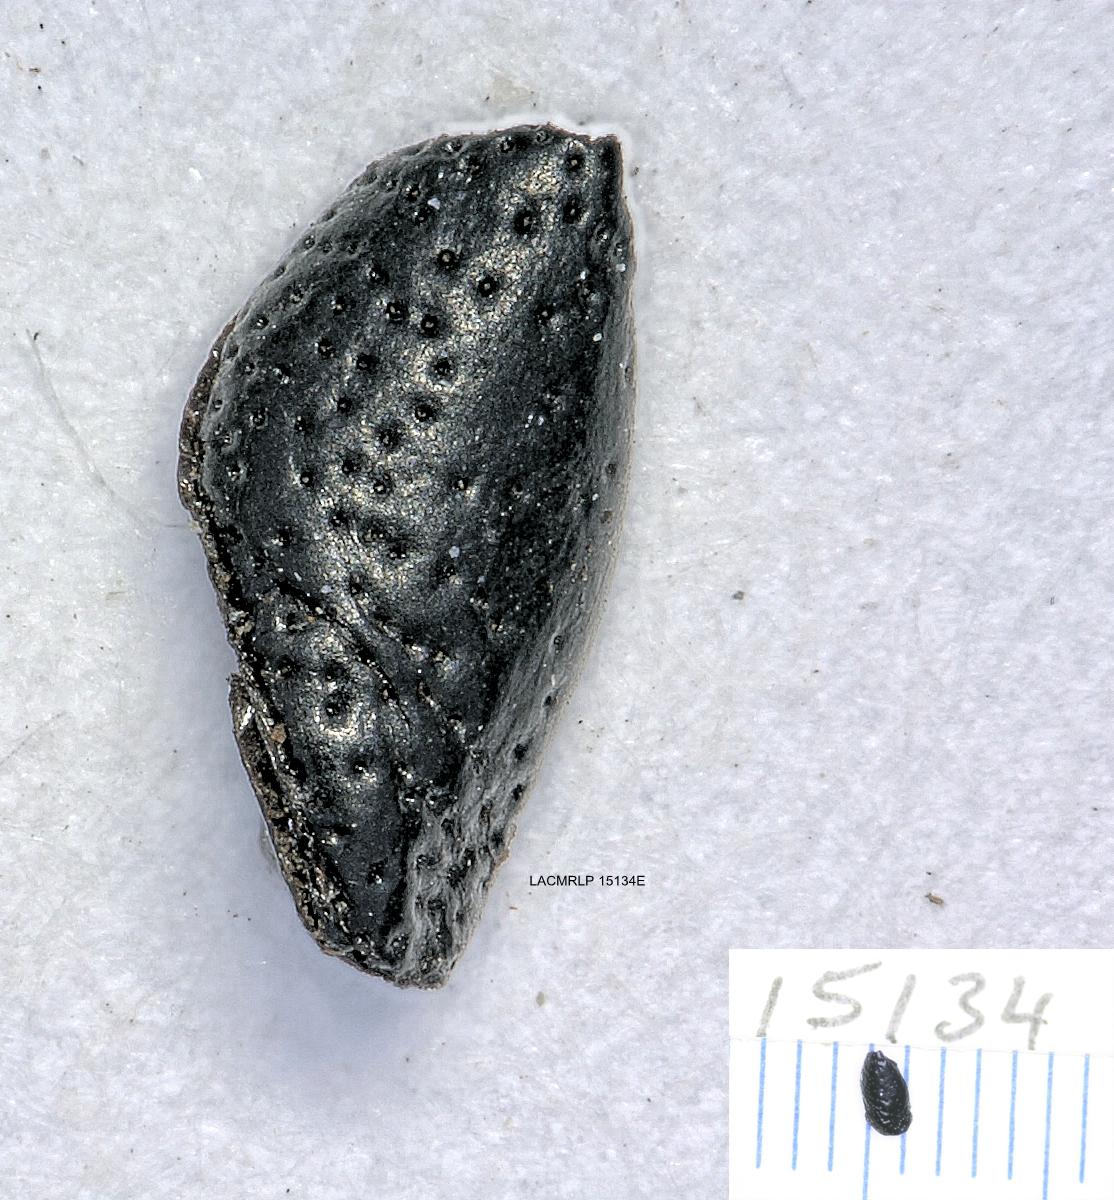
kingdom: Animalia
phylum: Arthropoda
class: Insecta
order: Coleoptera
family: Carabidae
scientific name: Carabidae
